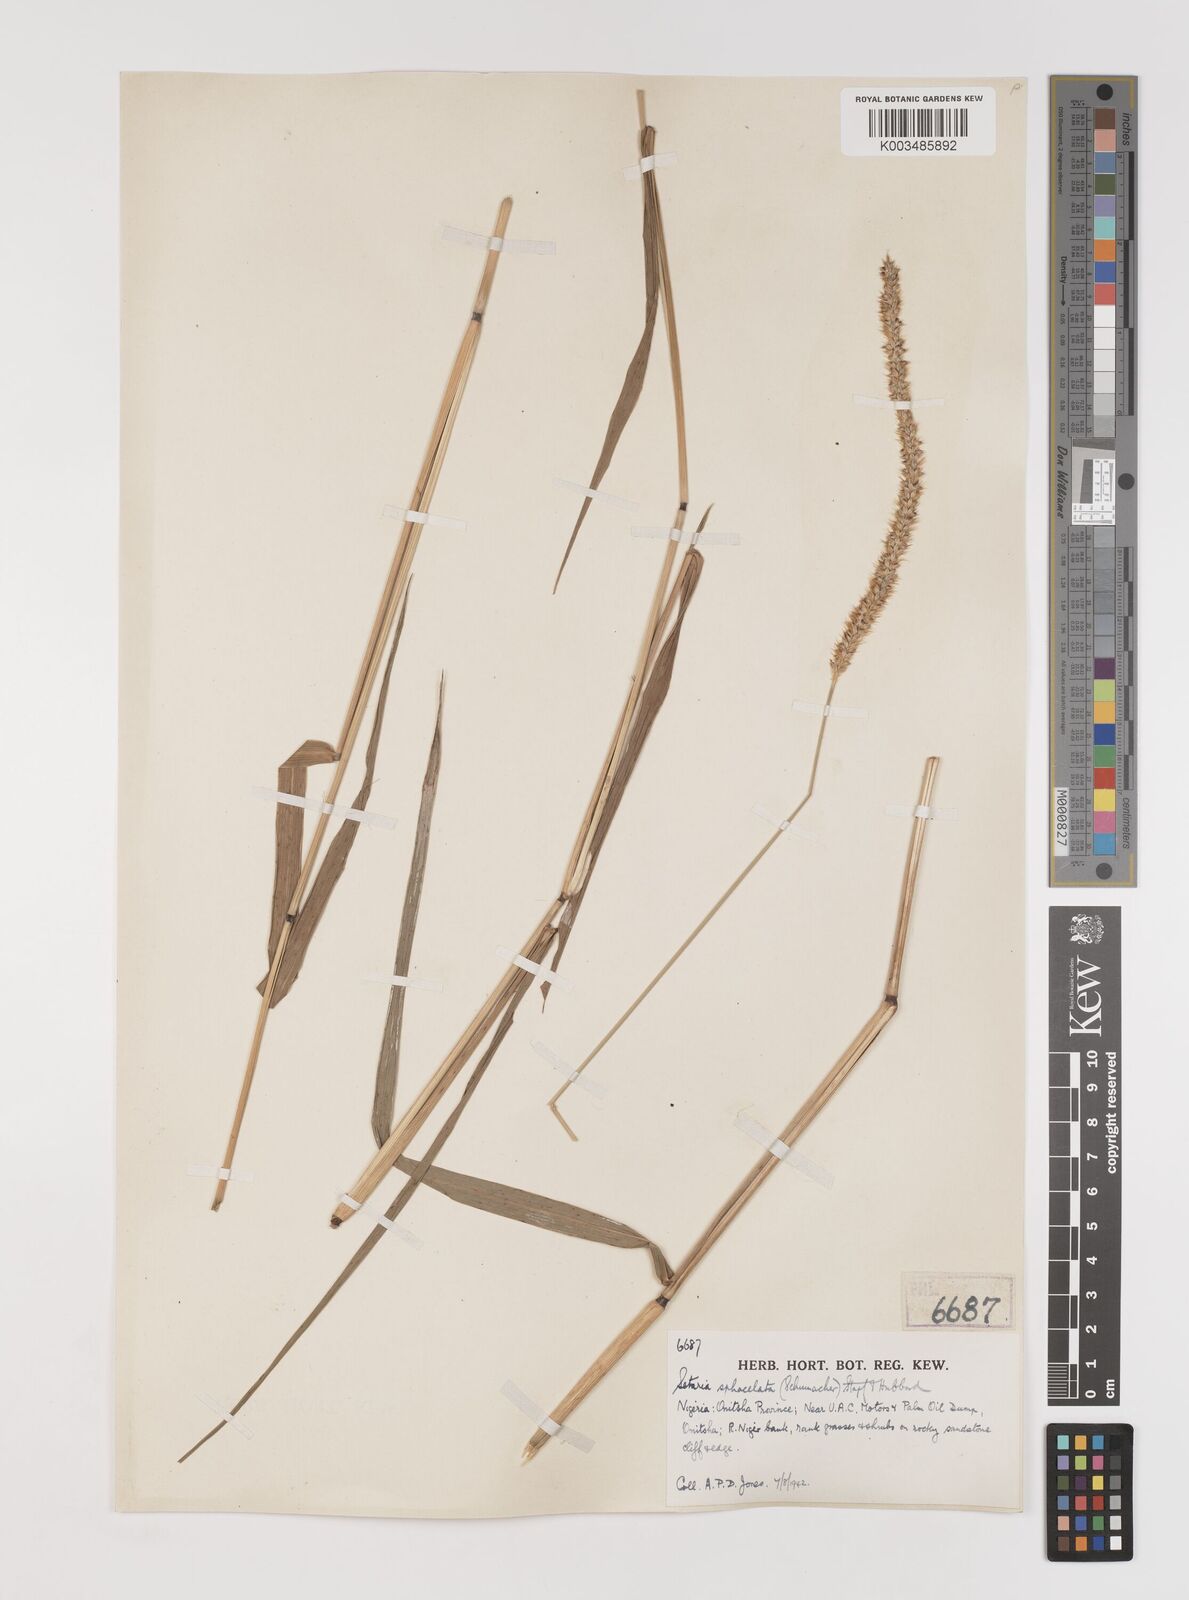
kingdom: Plantae
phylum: Tracheophyta
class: Liliopsida
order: Poales
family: Poaceae
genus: Setaria
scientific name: Setaria sphacelata
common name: African bristlegrass
